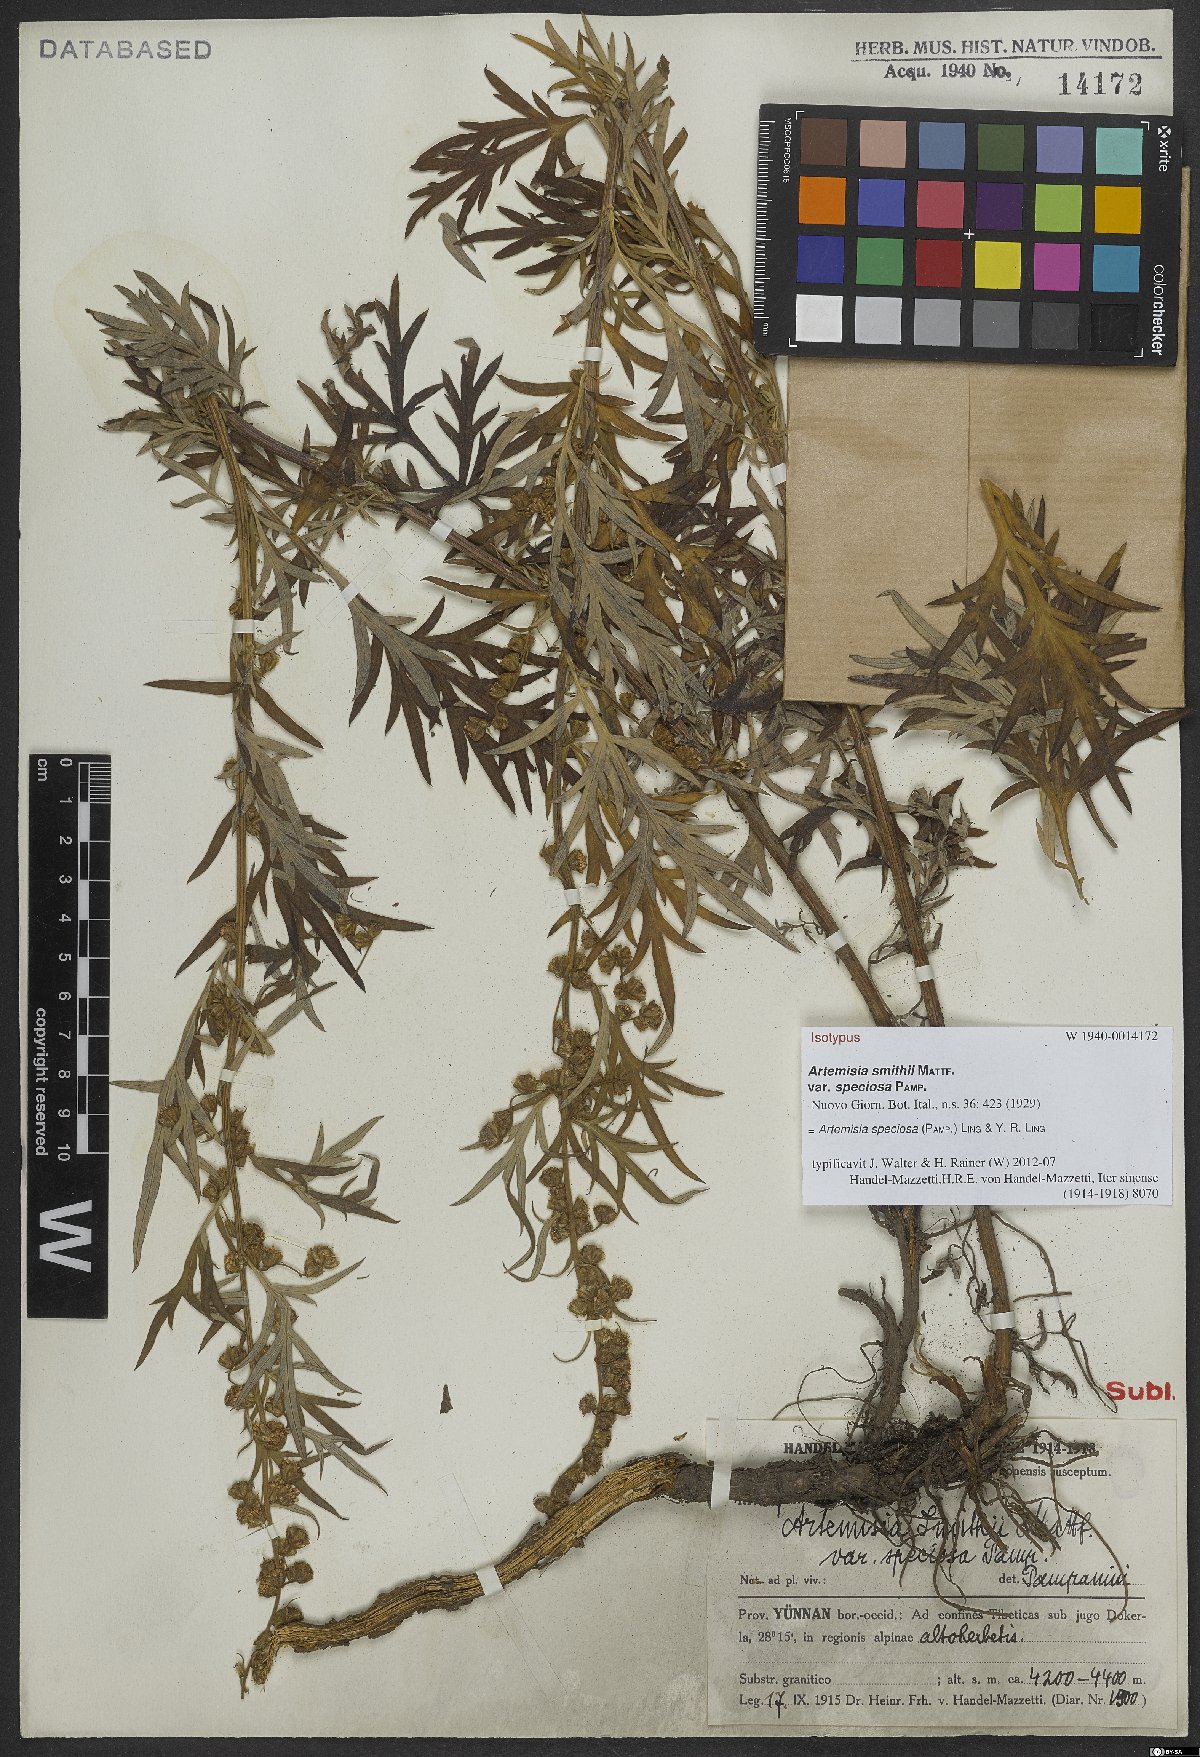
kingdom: Plantae
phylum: Tracheophyta
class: Magnoliopsida
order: Asterales
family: Asteraceae
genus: Artemisia
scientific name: Artemisia speciosa
